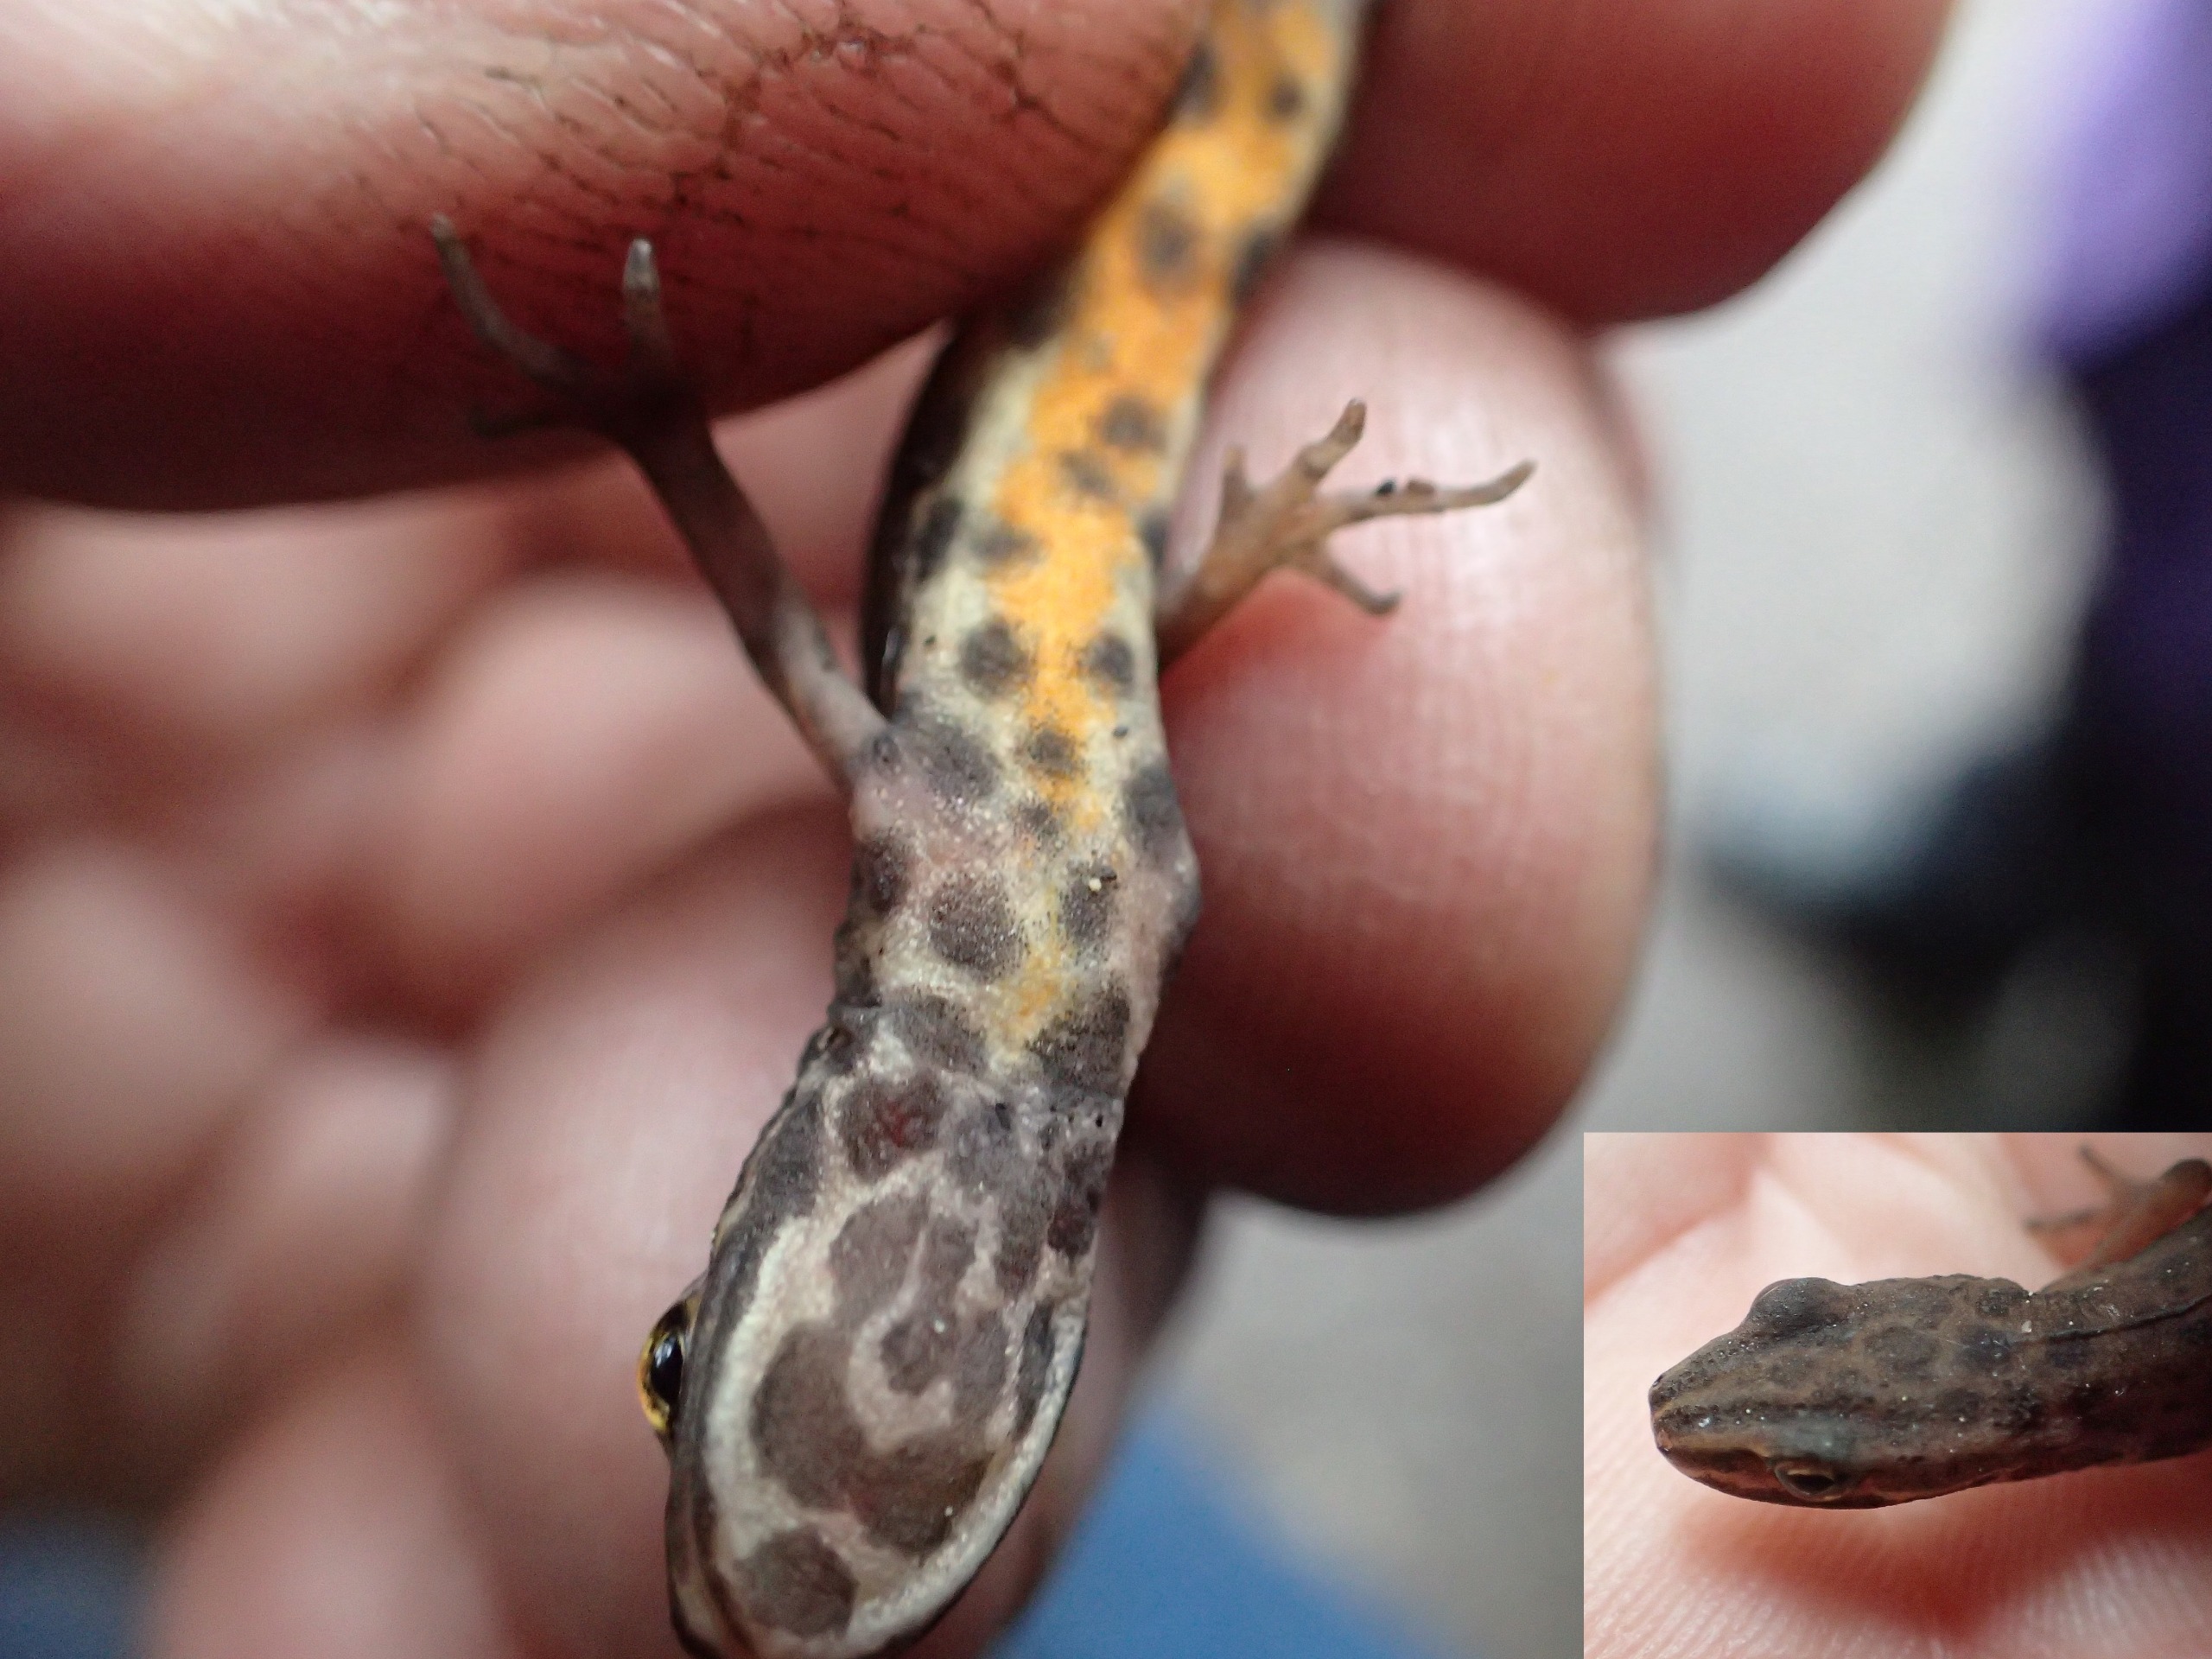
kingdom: Animalia
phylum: Chordata
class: Amphibia
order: Caudata
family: Salamandridae
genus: Lissotriton
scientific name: Lissotriton vulgaris
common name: Lille vandsalamander
